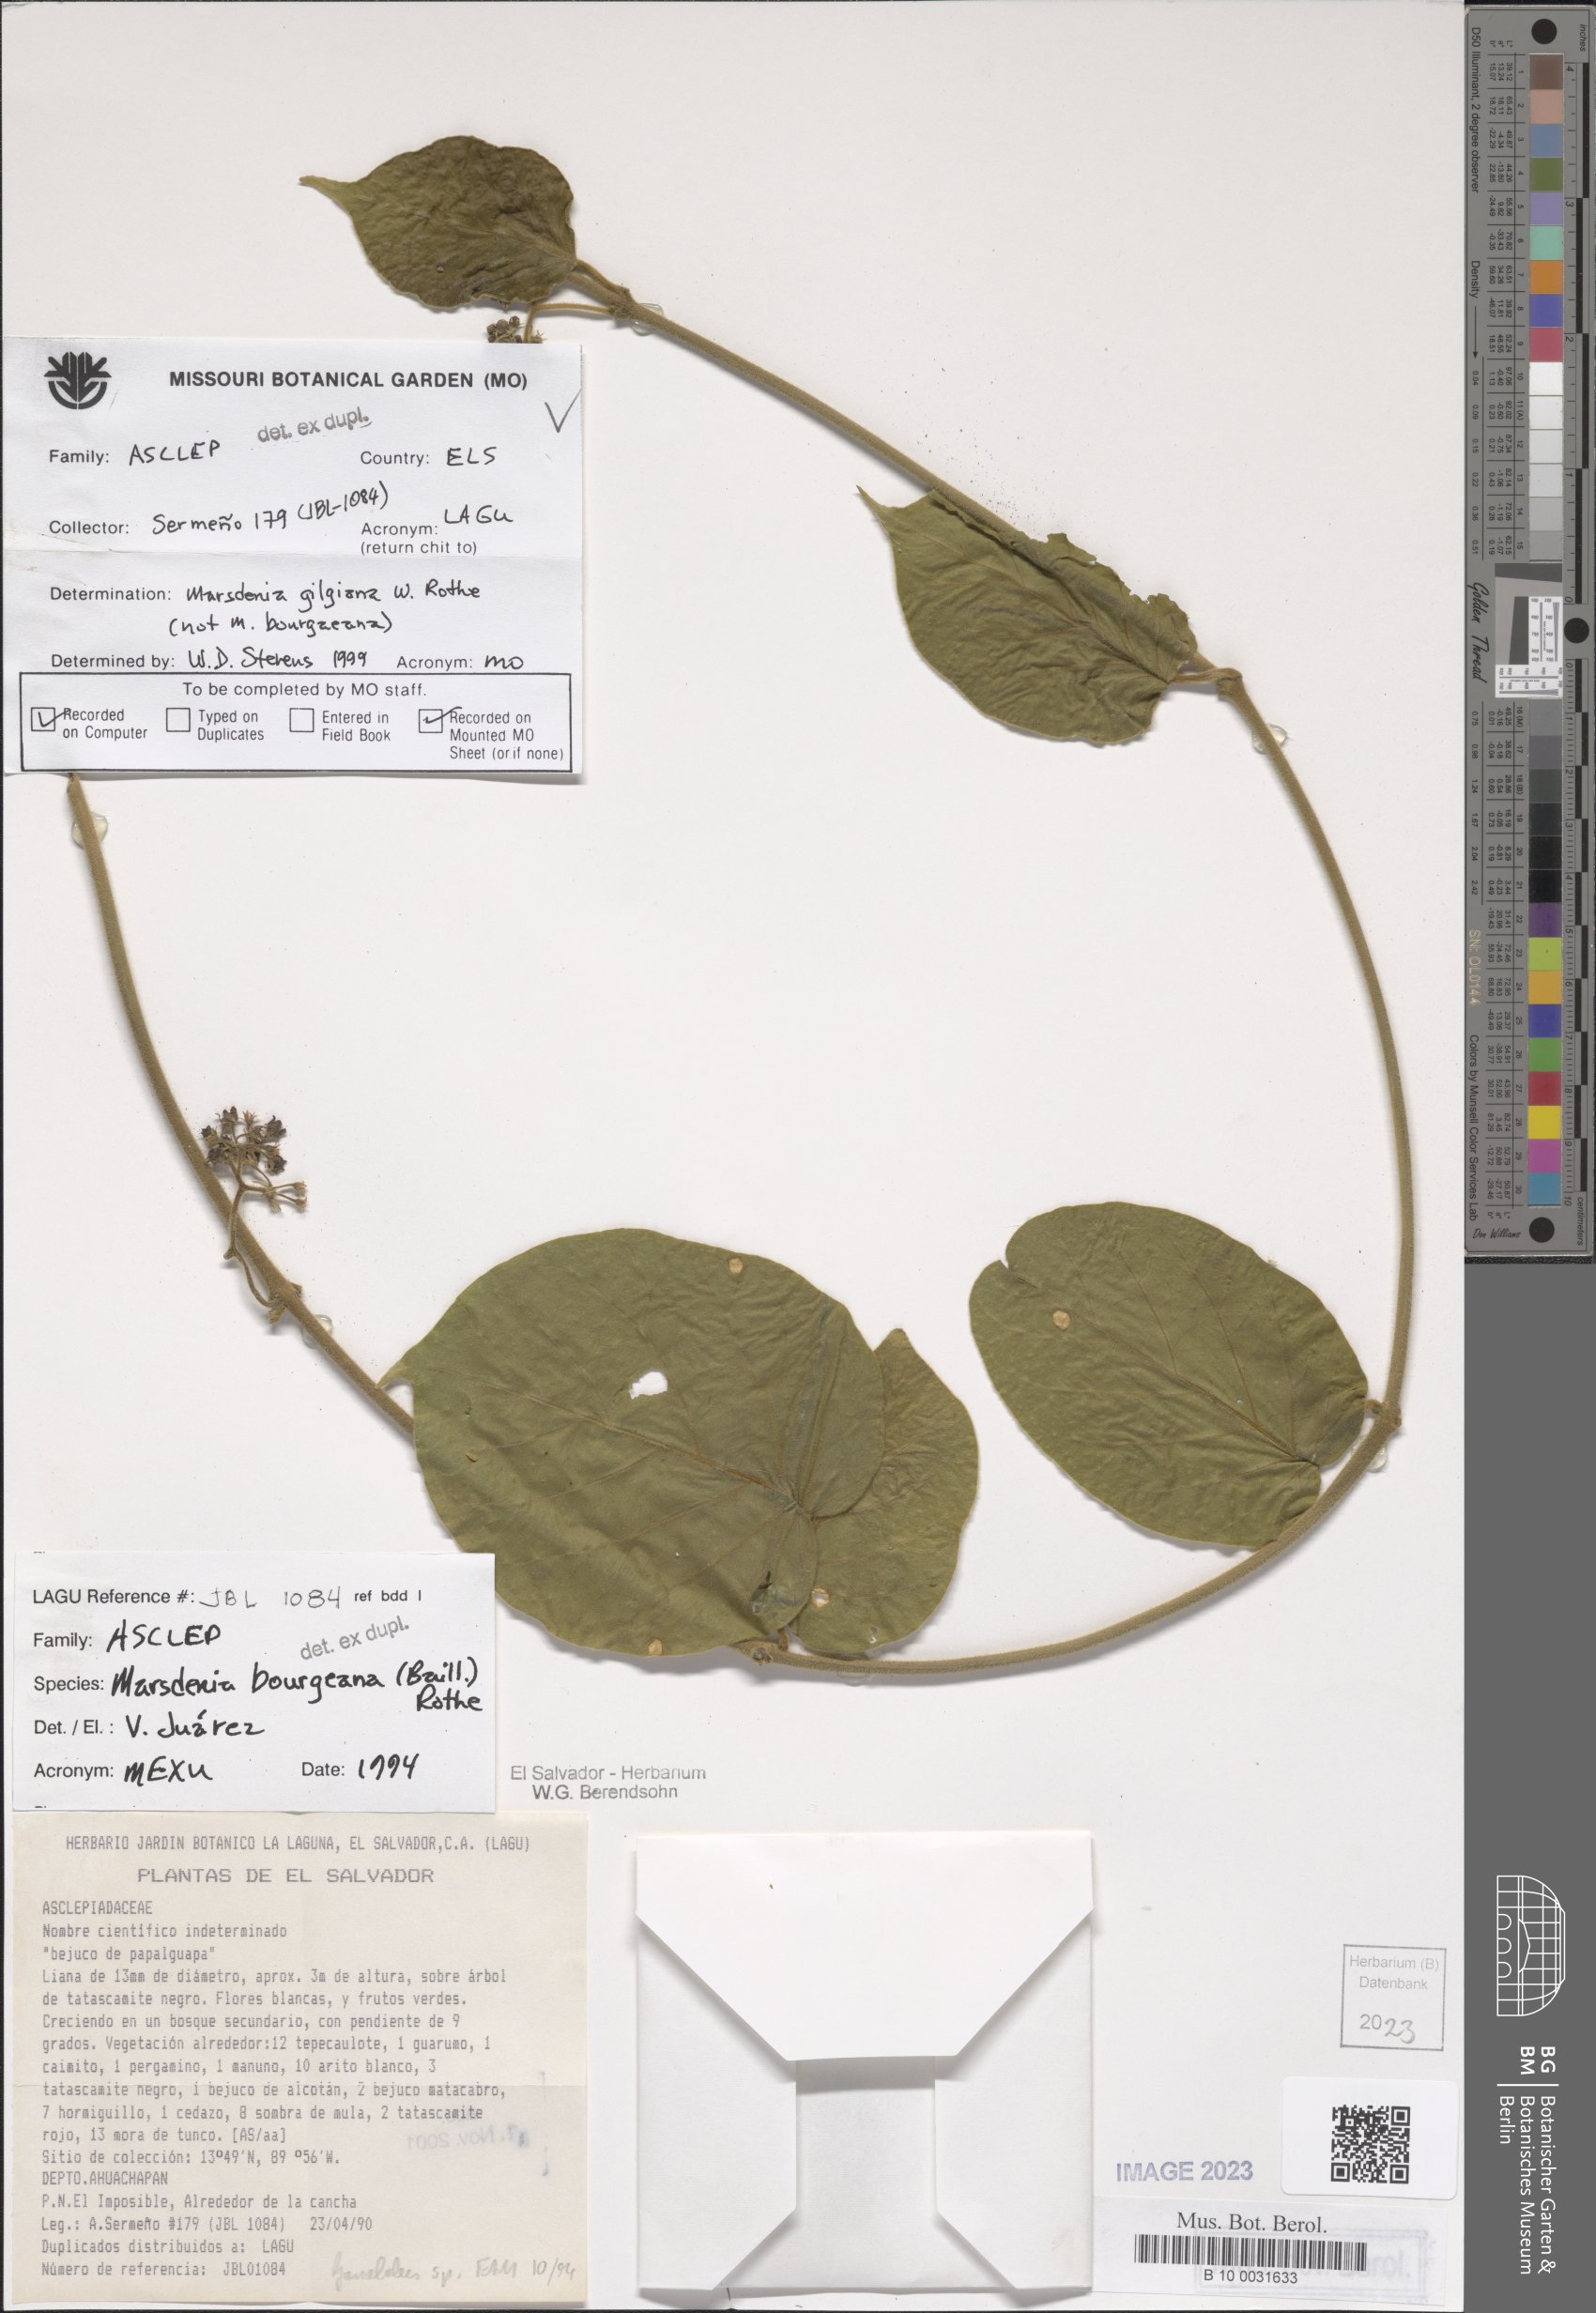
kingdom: Plantae
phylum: Tracheophyta
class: Magnoliopsida
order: Gentianales
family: Apocynaceae
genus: Ruehssia
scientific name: Ruehssia gilgiana
